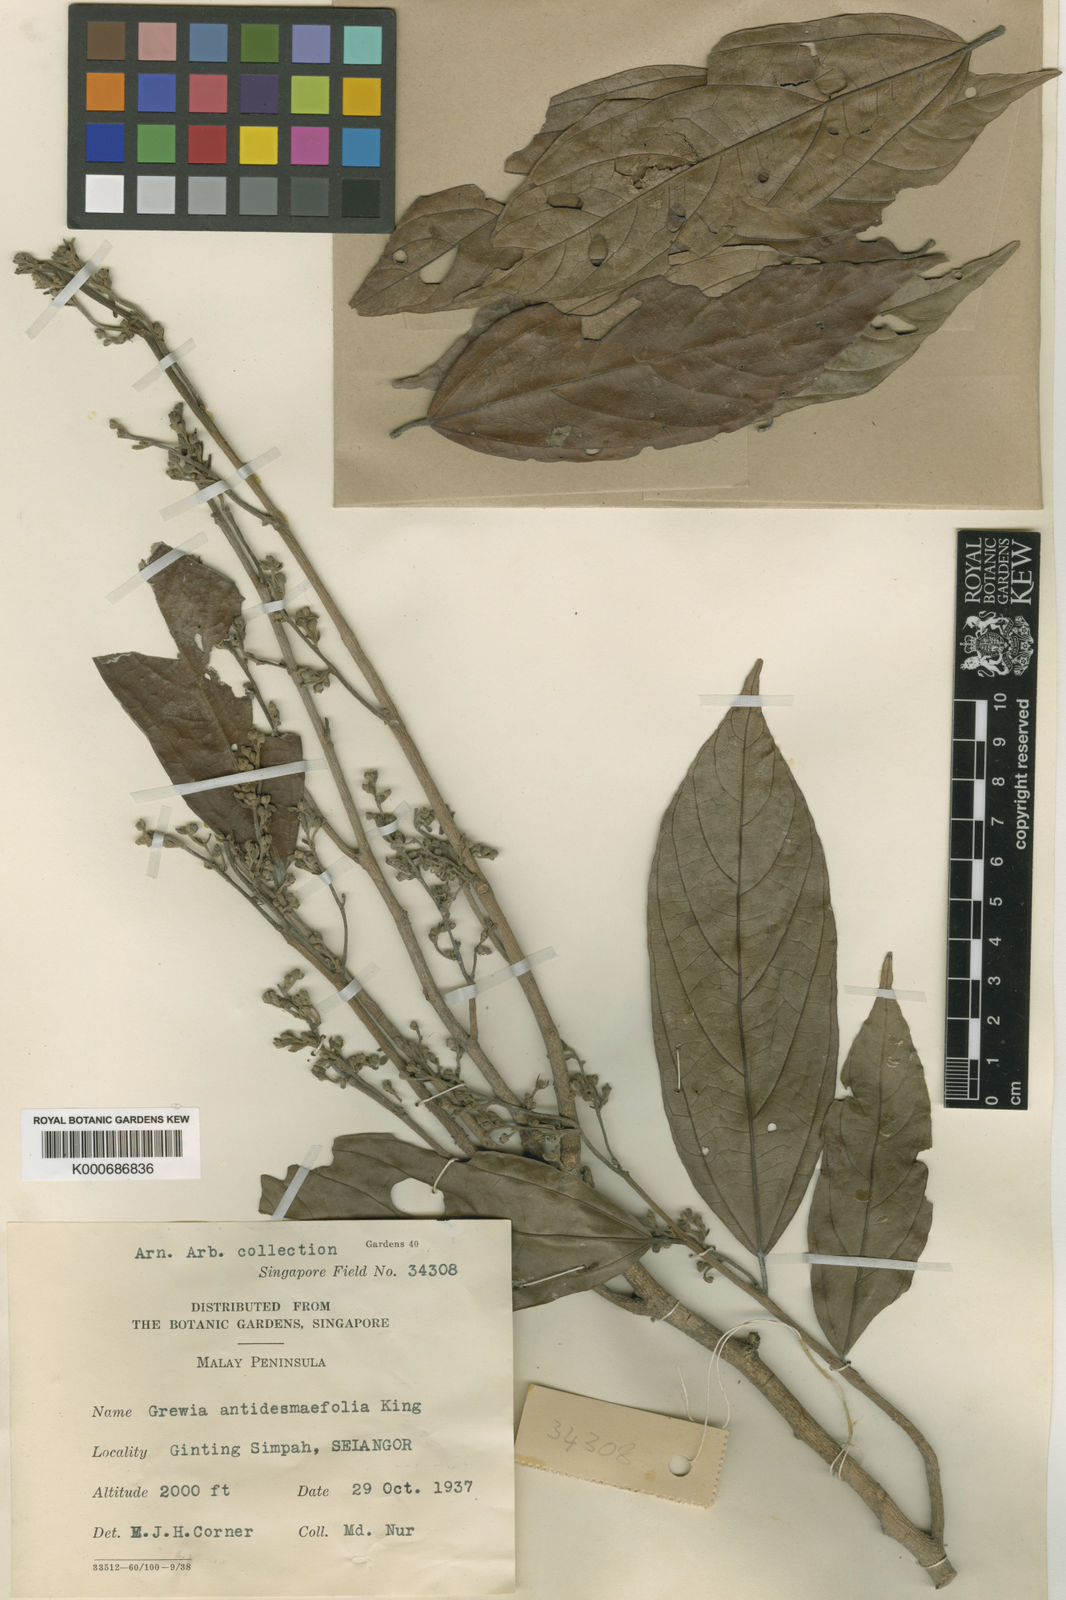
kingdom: Plantae
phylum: Tracheophyta
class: Magnoliopsida
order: Malvales
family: Malvaceae
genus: Microcos
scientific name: Microcos antidesmifolia
